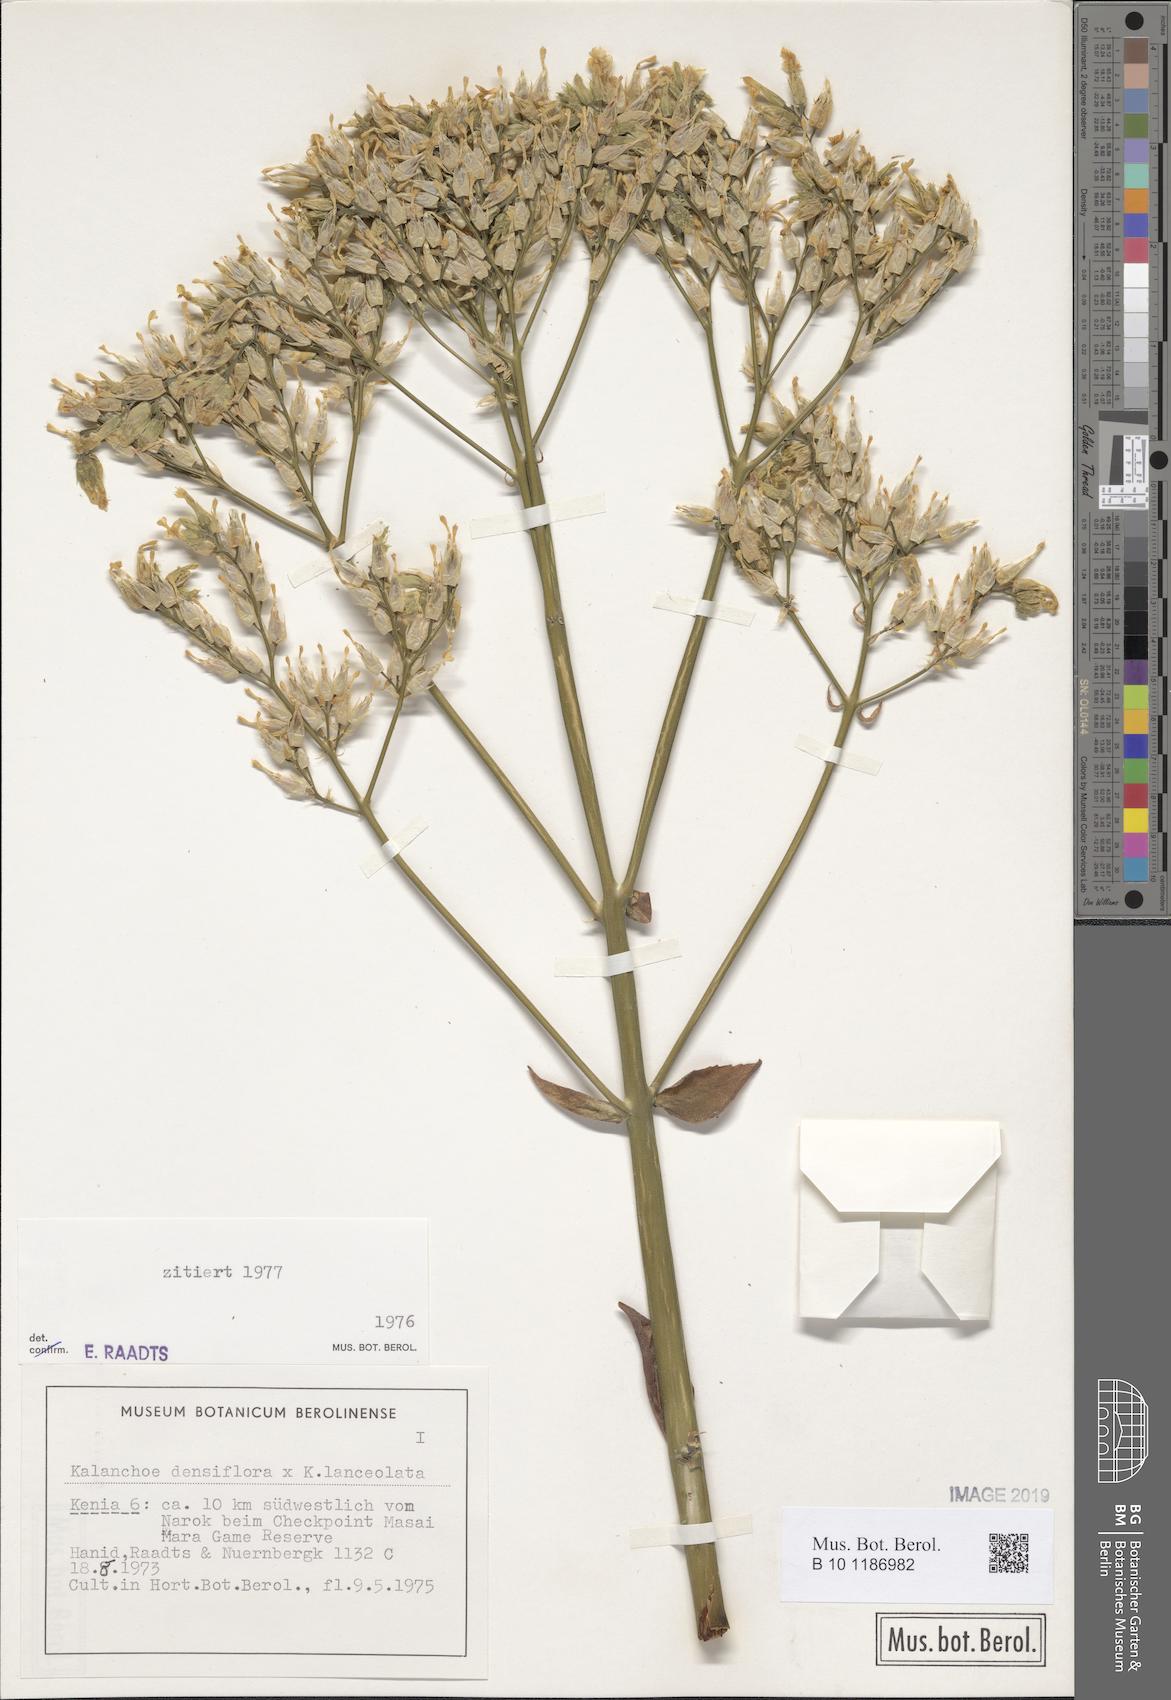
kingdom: Plantae
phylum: Tracheophyta
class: Magnoliopsida
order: Saxifragales
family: Crassulaceae
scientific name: Crassulaceae
